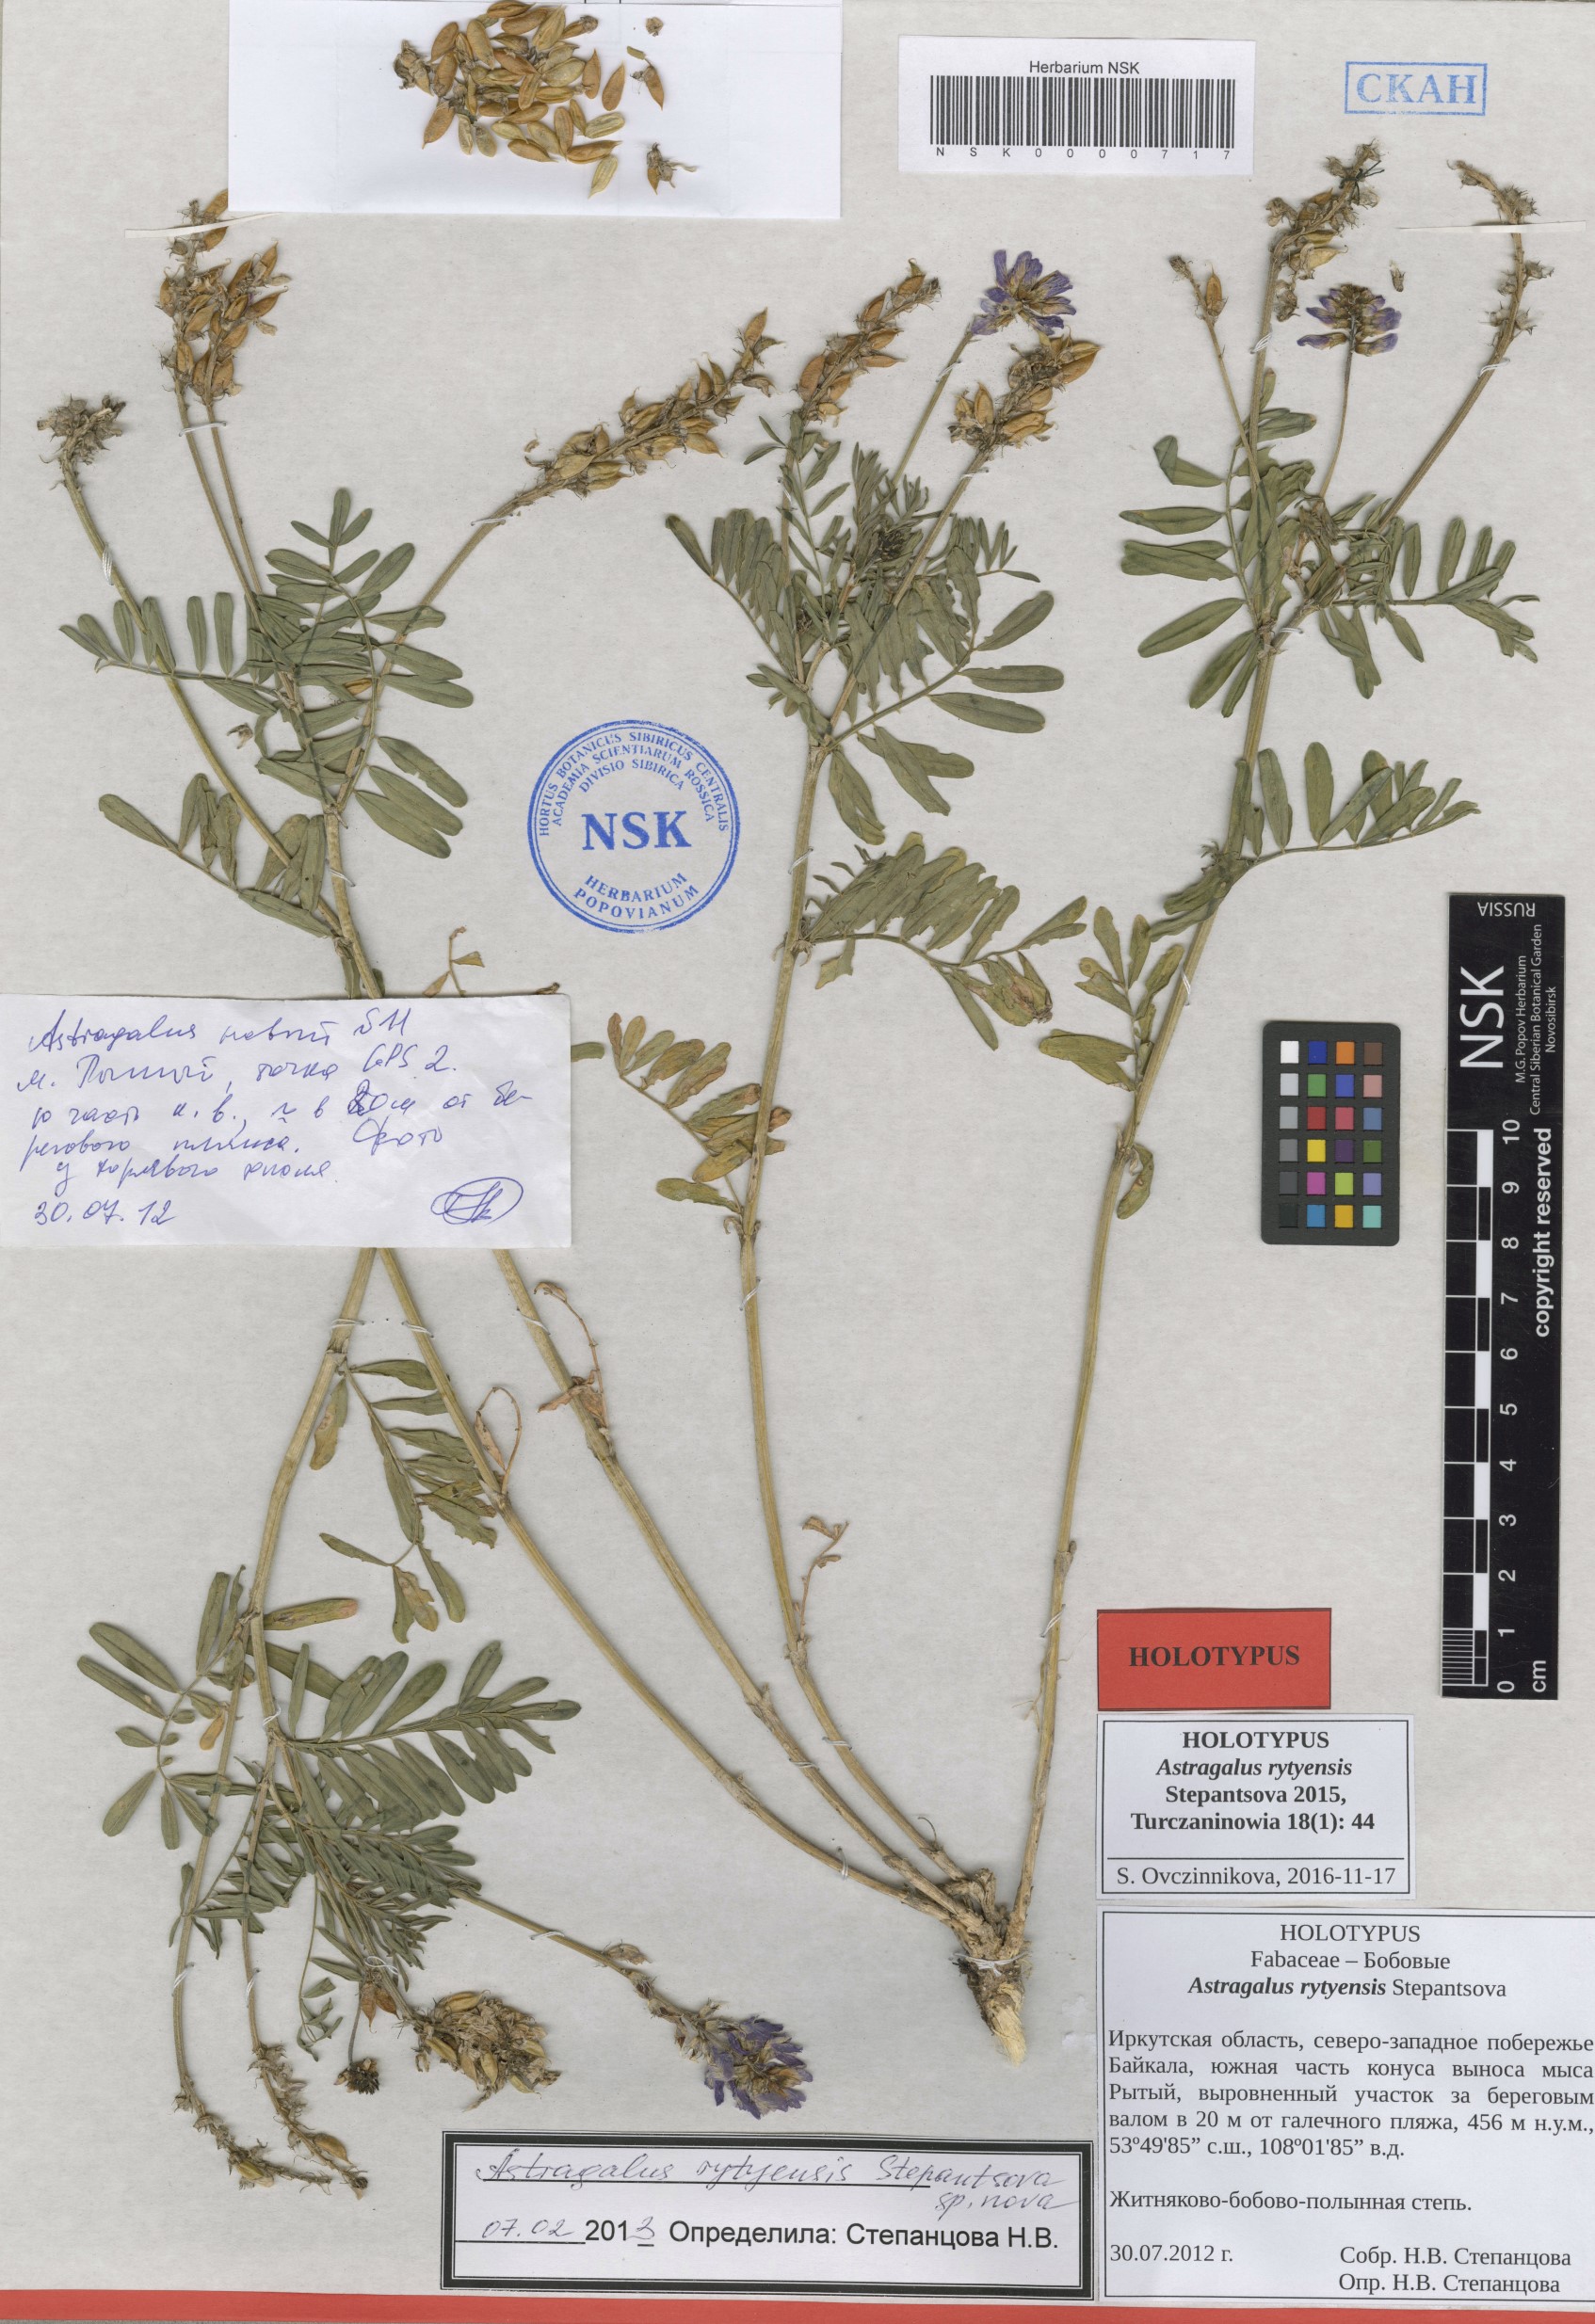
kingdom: Plantae
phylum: Tracheophyta
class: Magnoliopsida
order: Fabales
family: Fabaceae
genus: Astragalus
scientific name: Astragalus rytyensis
